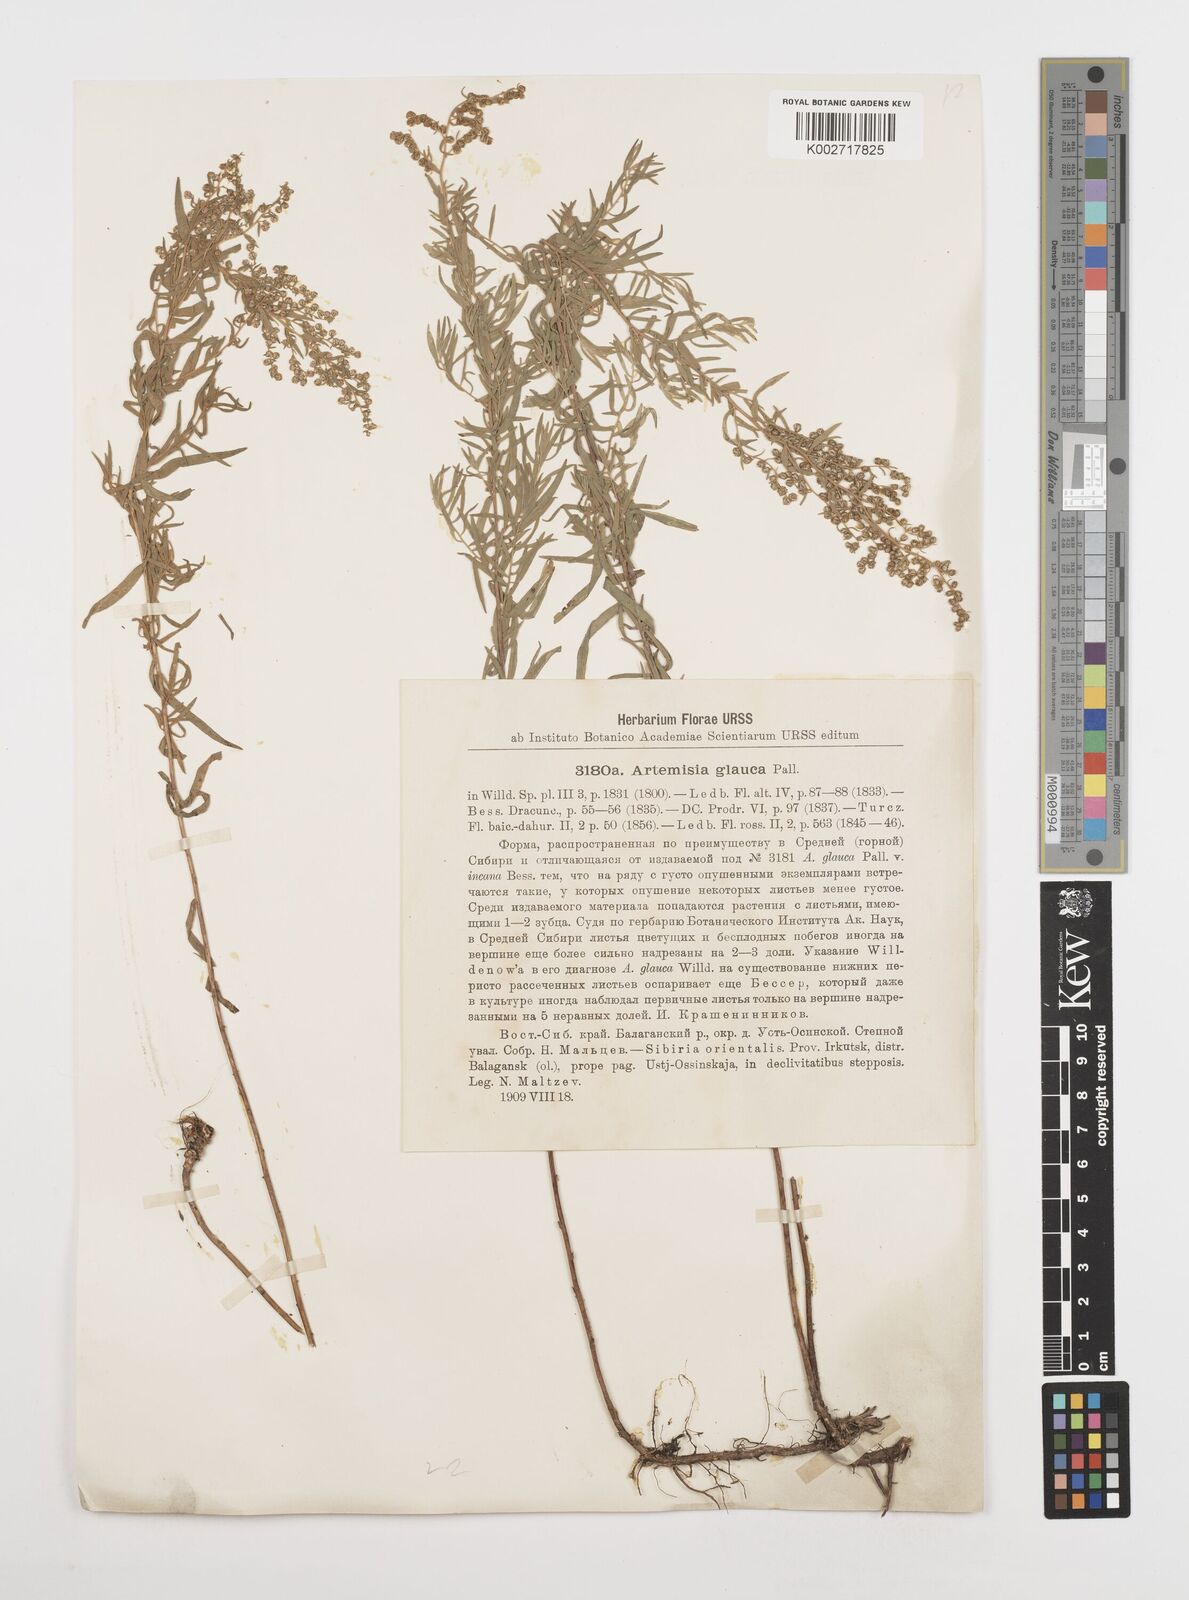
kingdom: Plantae
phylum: Tracheophyta
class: Magnoliopsida
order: Asterales
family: Asteraceae
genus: Artemisia
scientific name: Artemisia glauca
